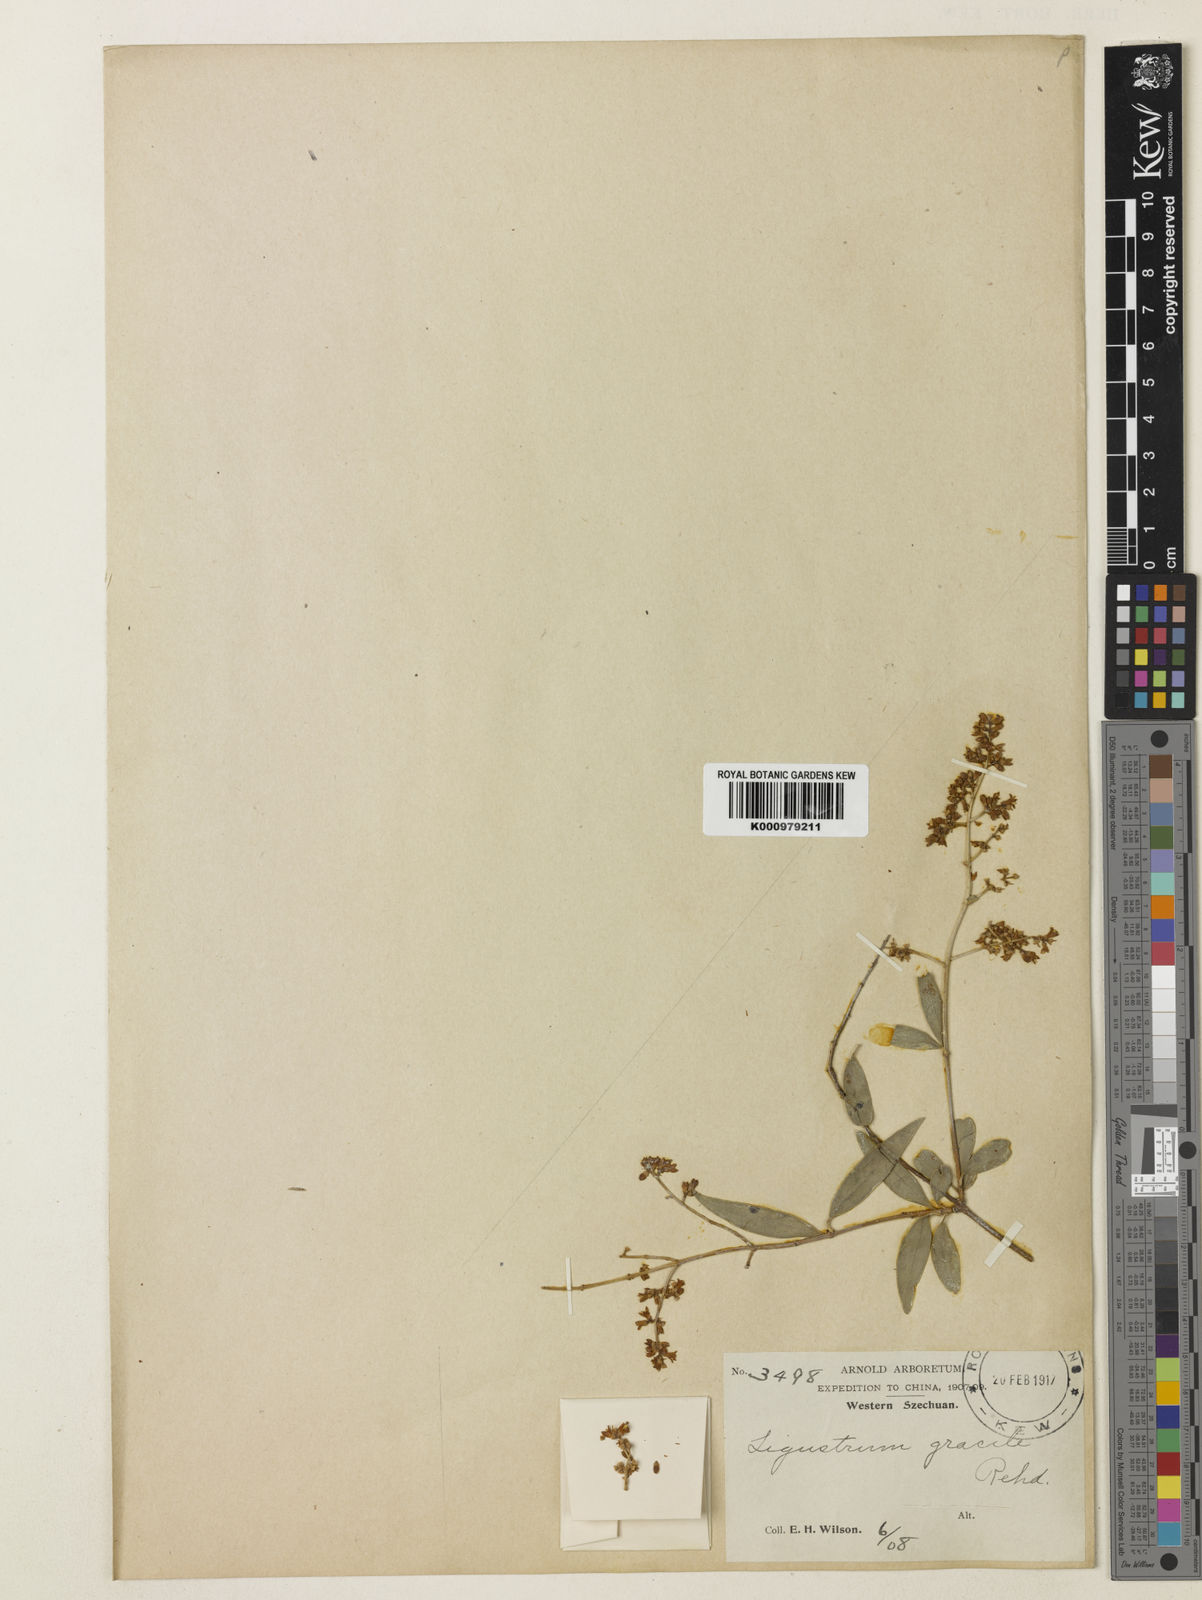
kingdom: Plantae
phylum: Tracheophyta
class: Magnoliopsida
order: Lamiales
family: Oleaceae
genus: Ligustrum
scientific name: Ligustrum gracile
